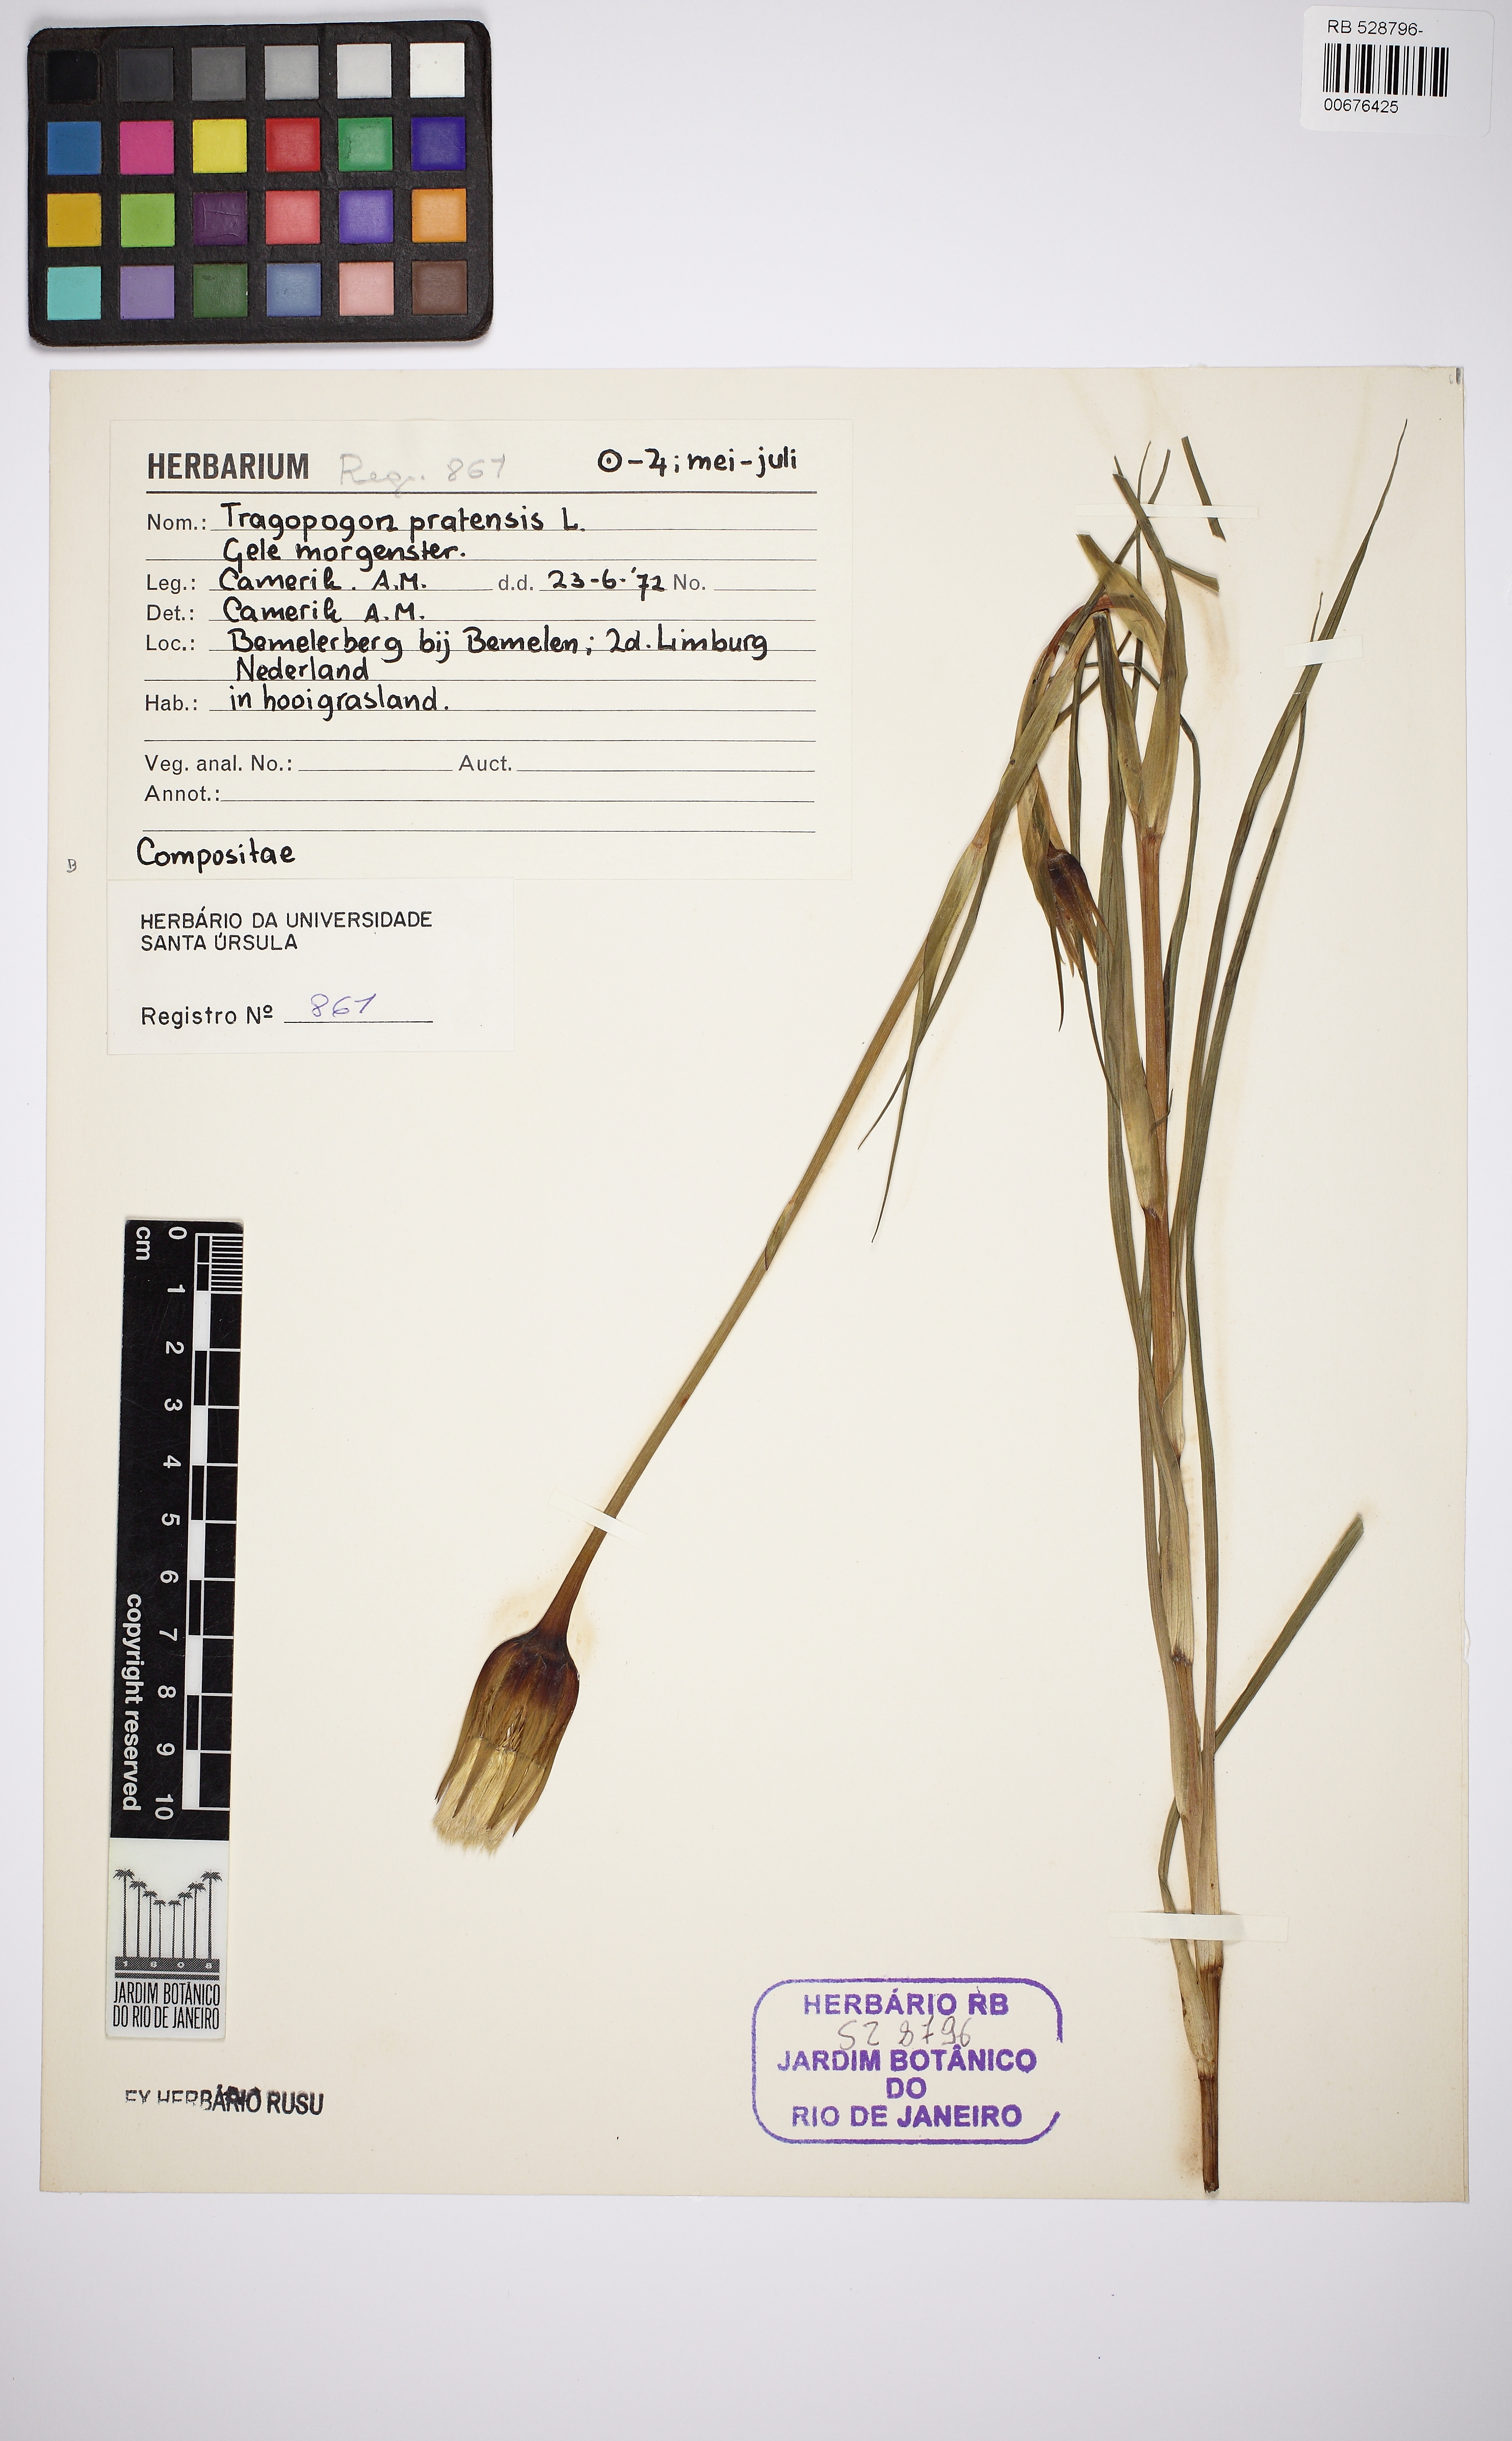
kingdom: Plantae
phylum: Tracheophyta
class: Magnoliopsida
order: Asterales
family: Asteraceae
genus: Tragopogon
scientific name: Tragopogon pratensis
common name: Goat's-beard
